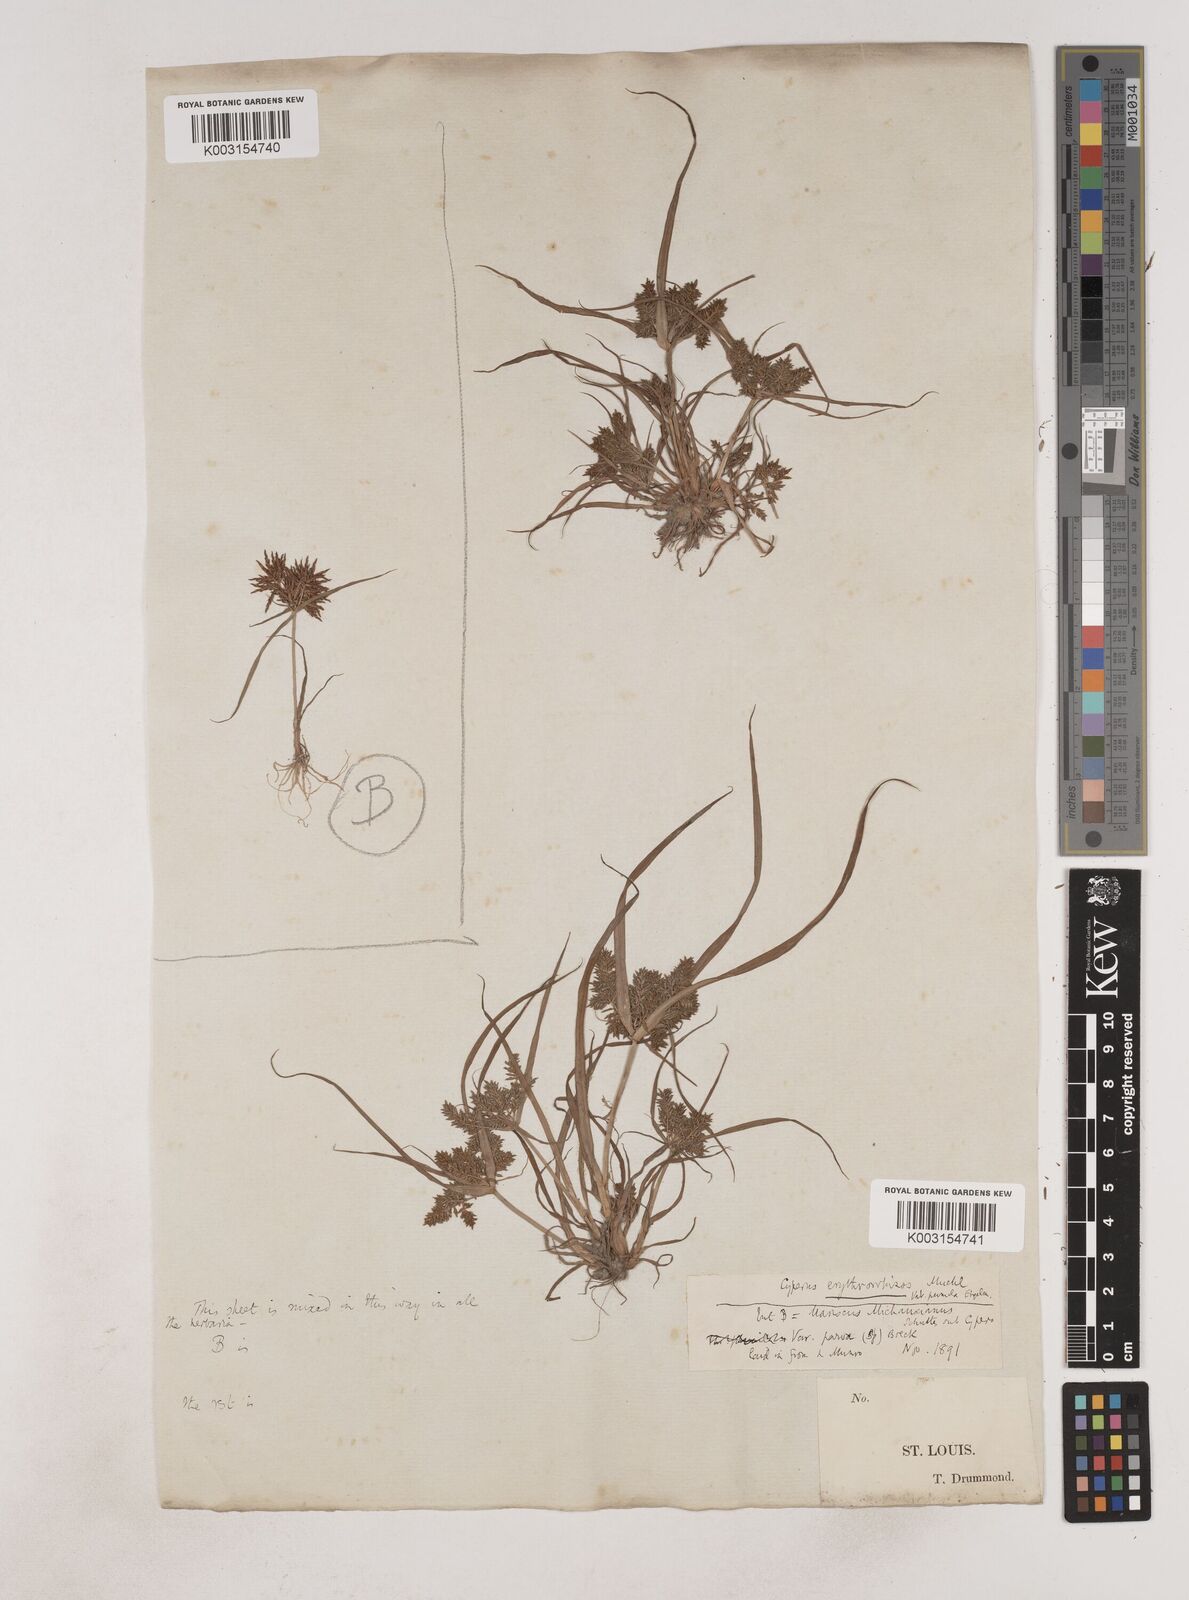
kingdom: Plantae
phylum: Tracheophyta
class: Liliopsida
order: Poales
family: Cyperaceae
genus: Cyperus
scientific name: Cyperus erythrorhizos
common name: Red-root flat sedge
